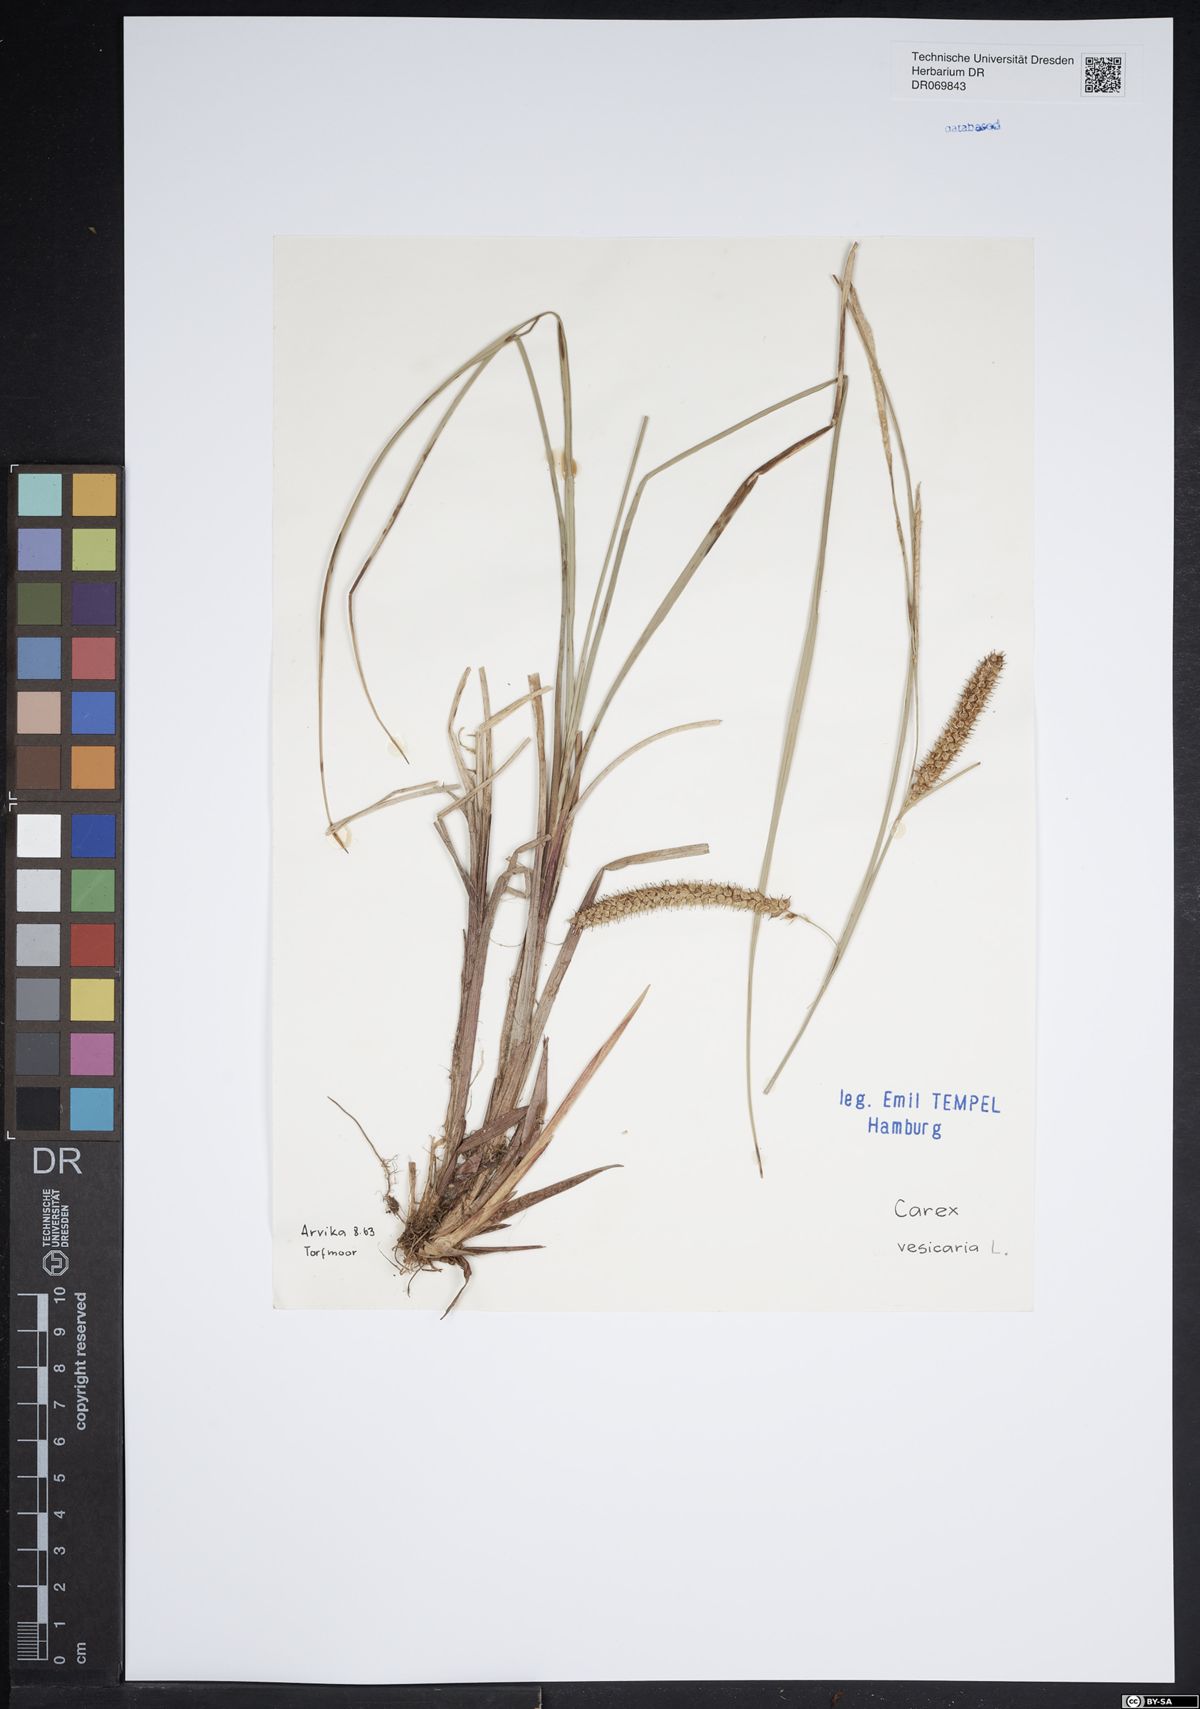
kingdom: Plantae
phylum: Tracheophyta
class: Liliopsida
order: Poales
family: Cyperaceae
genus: Carex
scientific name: Carex vesicaria
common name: Bladder-sedge
